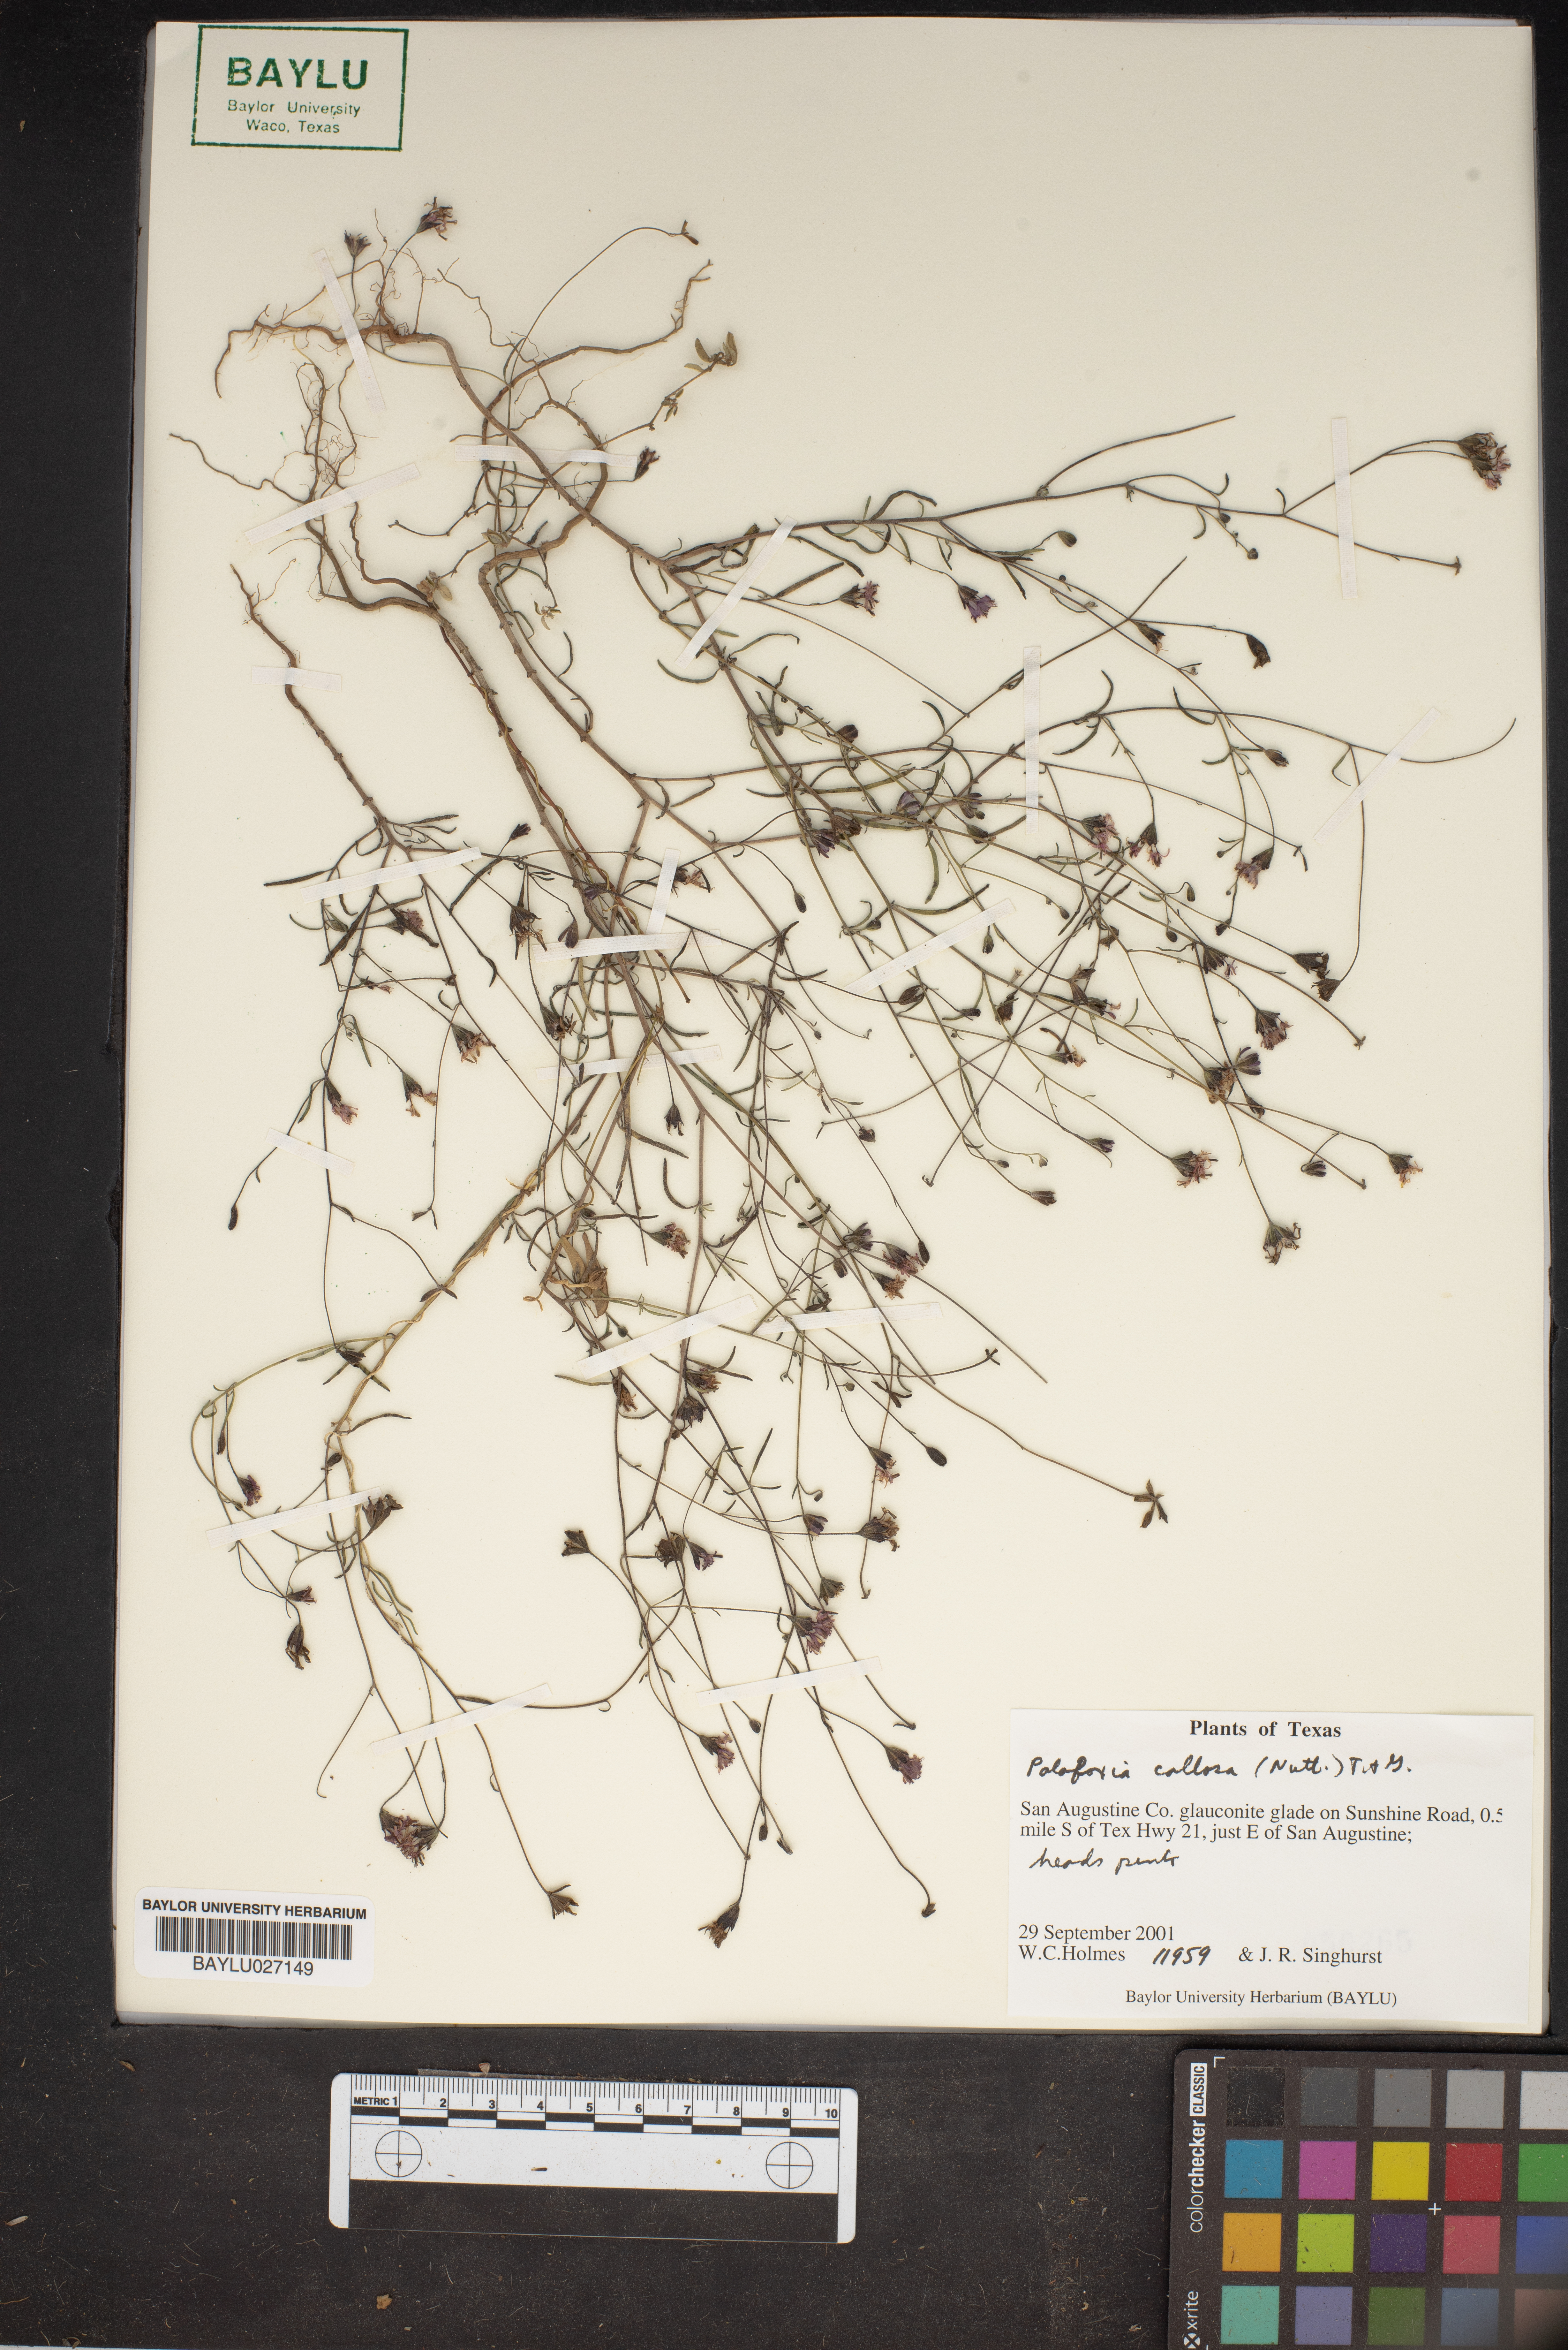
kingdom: Plantae
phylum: Tracheophyta
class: Magnoliopsida
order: Asterales
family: Asteraceae
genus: Palafoxia
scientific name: Palafoxia callosa
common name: Small palafox
